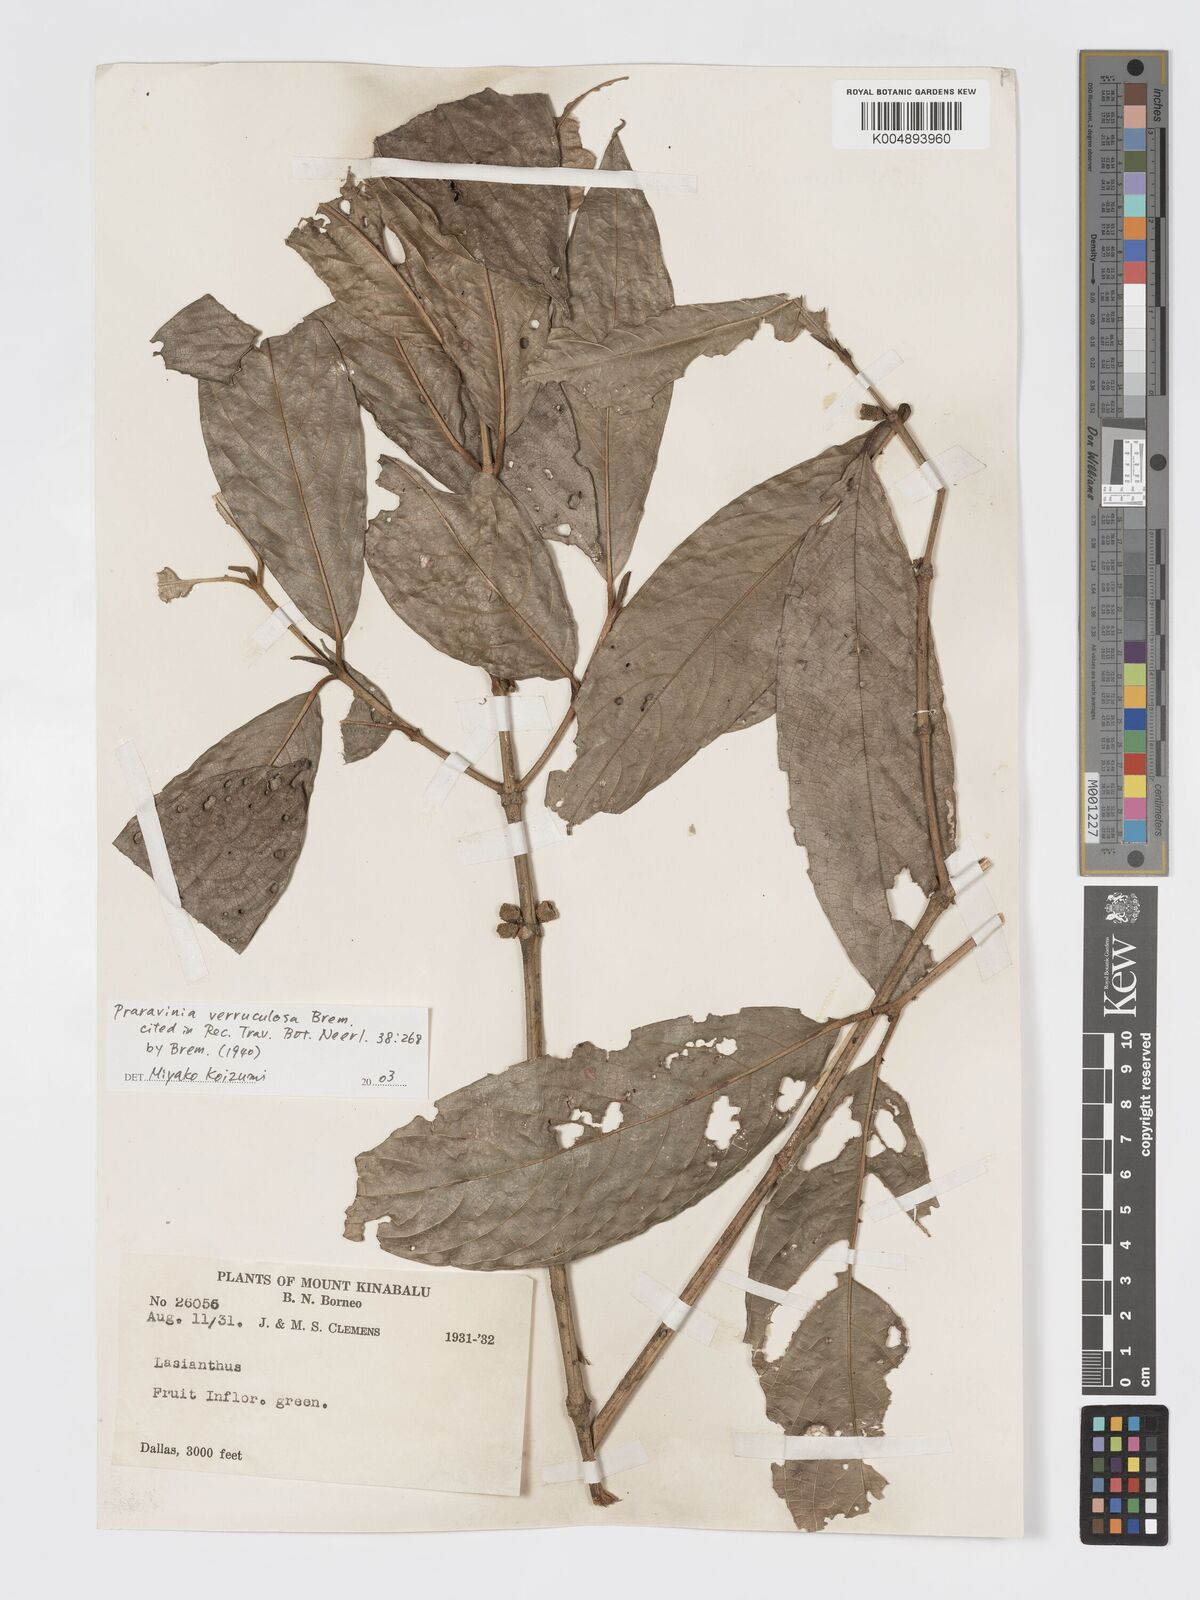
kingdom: Plantae
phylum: Tracheophyta
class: Magnoliopsida
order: Gentianales
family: Rubiaceae
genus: Praravinia
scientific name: Praravinia verruculosa
